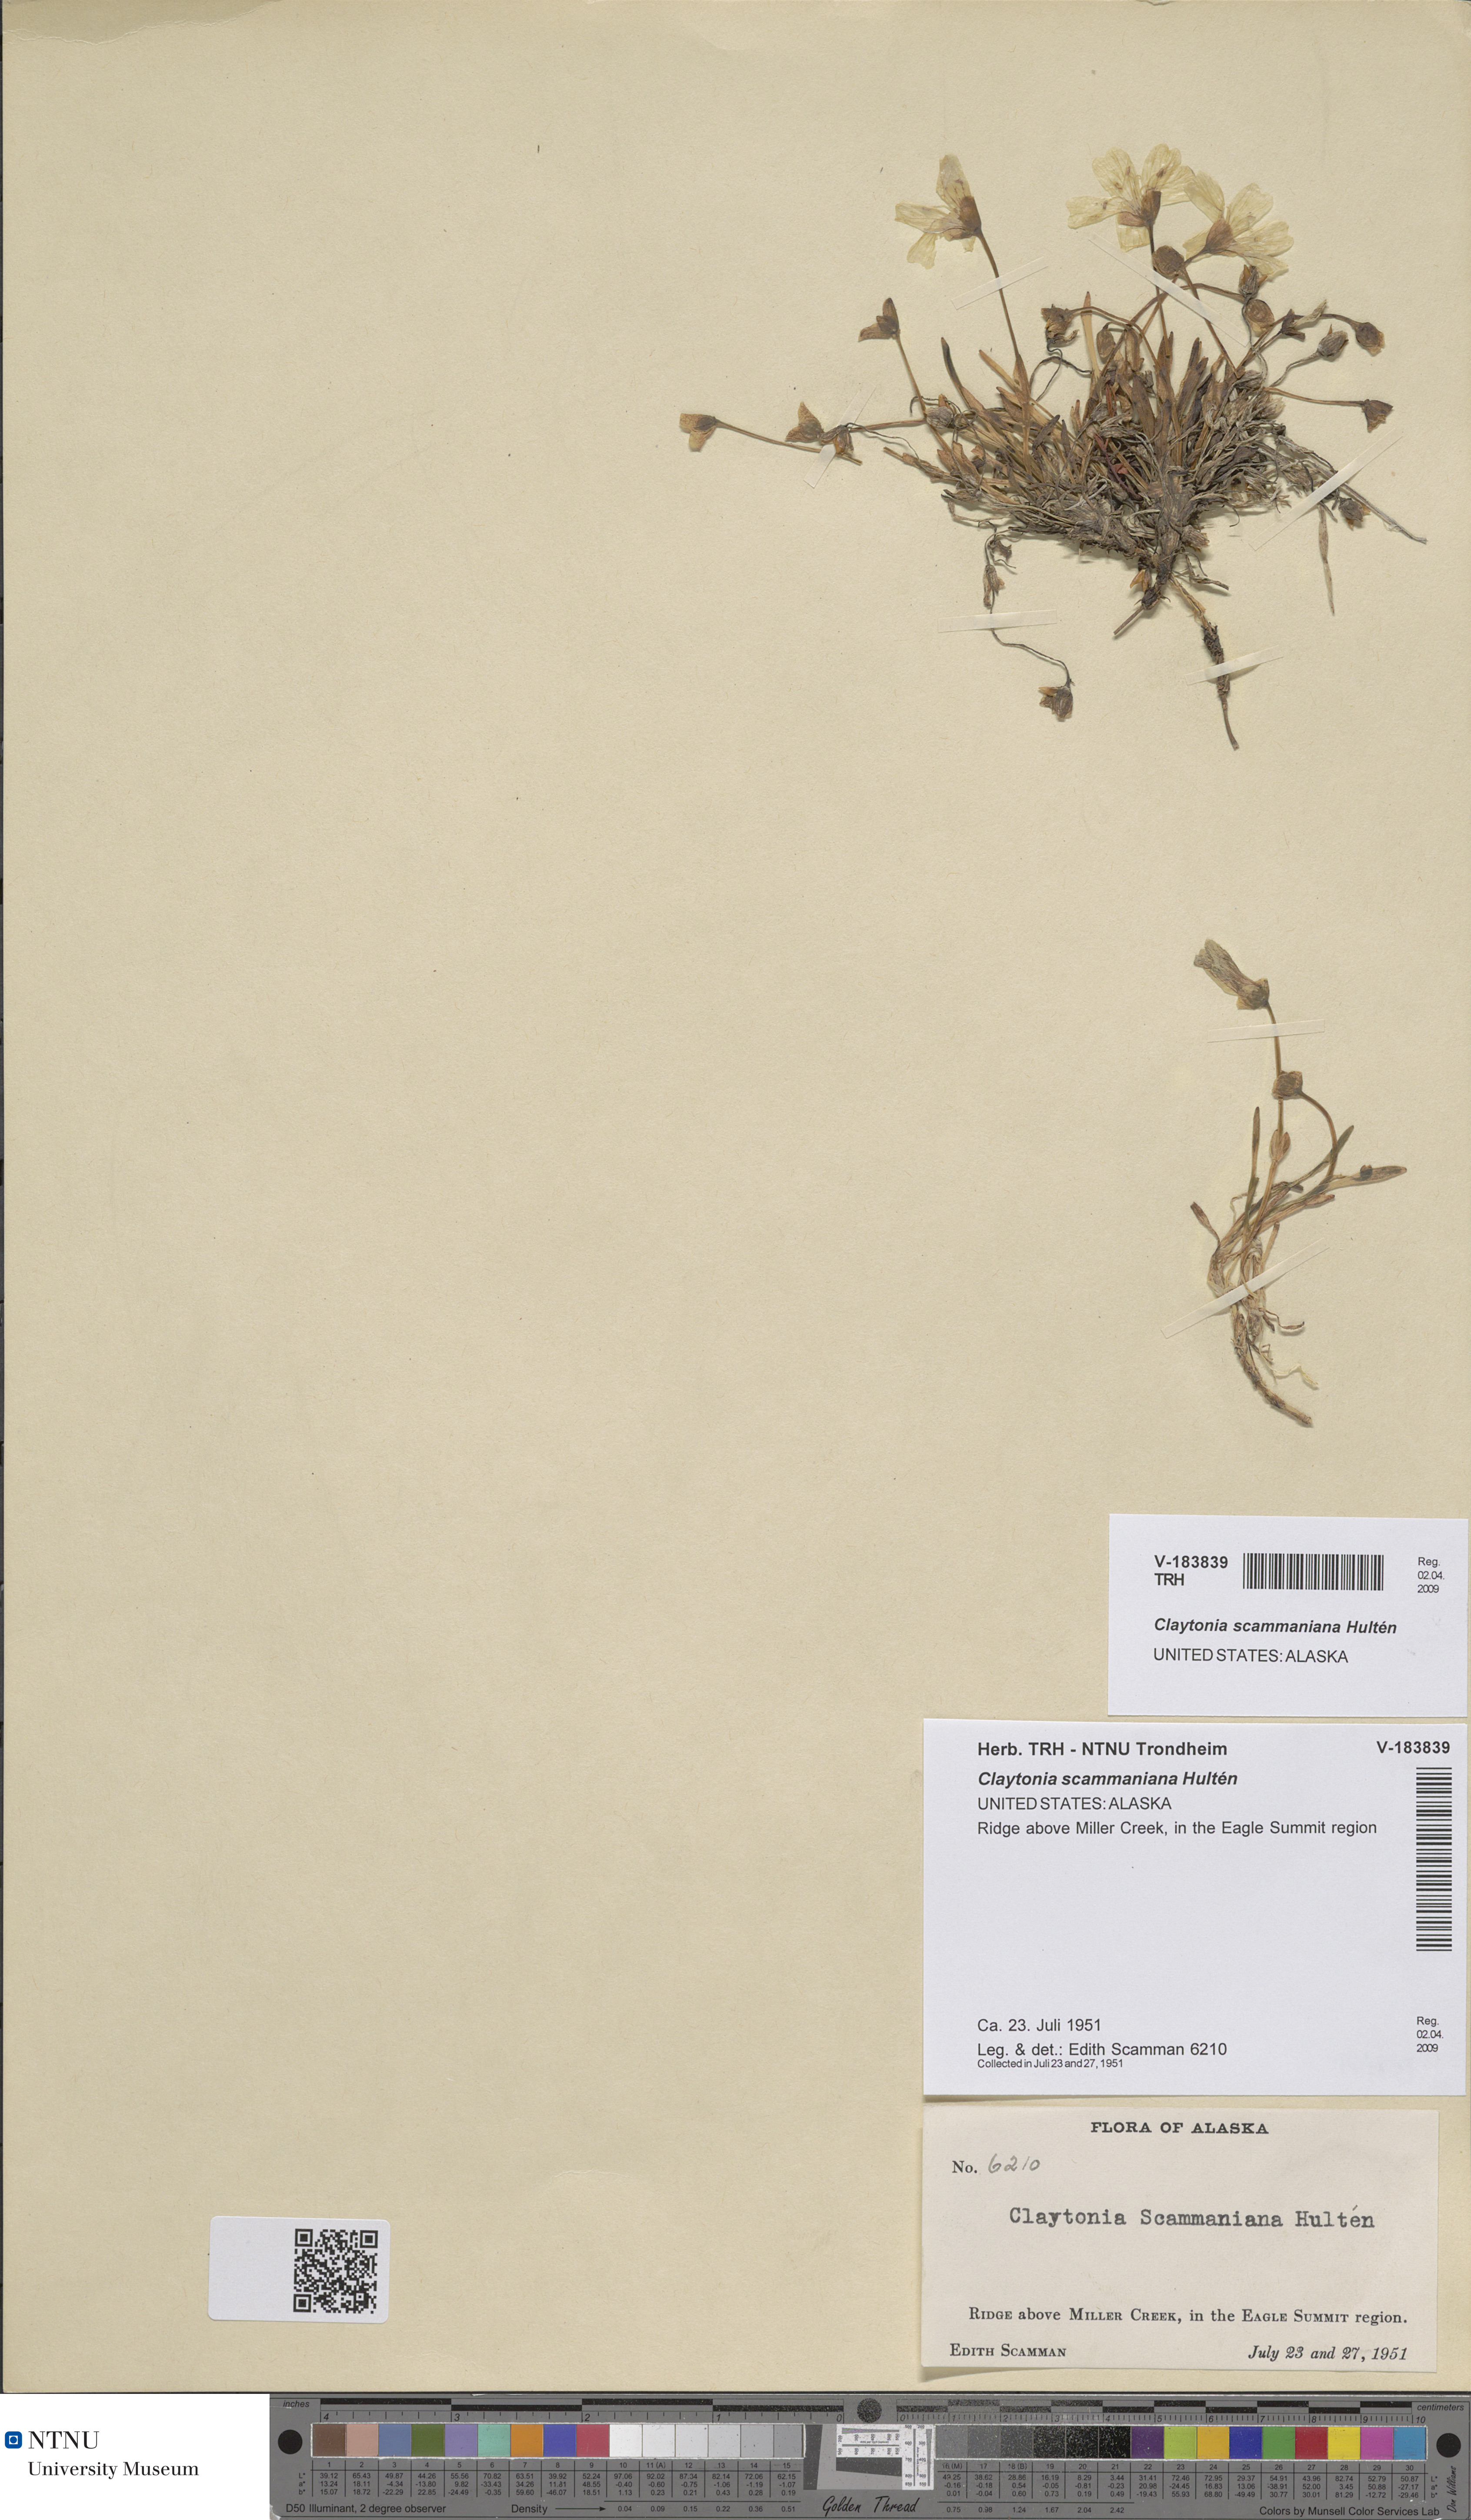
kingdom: Plantae
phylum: Tracheophyta
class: Magnoliopsida
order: Caryophyllales
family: Montiaceae
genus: Claytonia
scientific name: Claytonia scammaniana
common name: Scamman's claytonia
